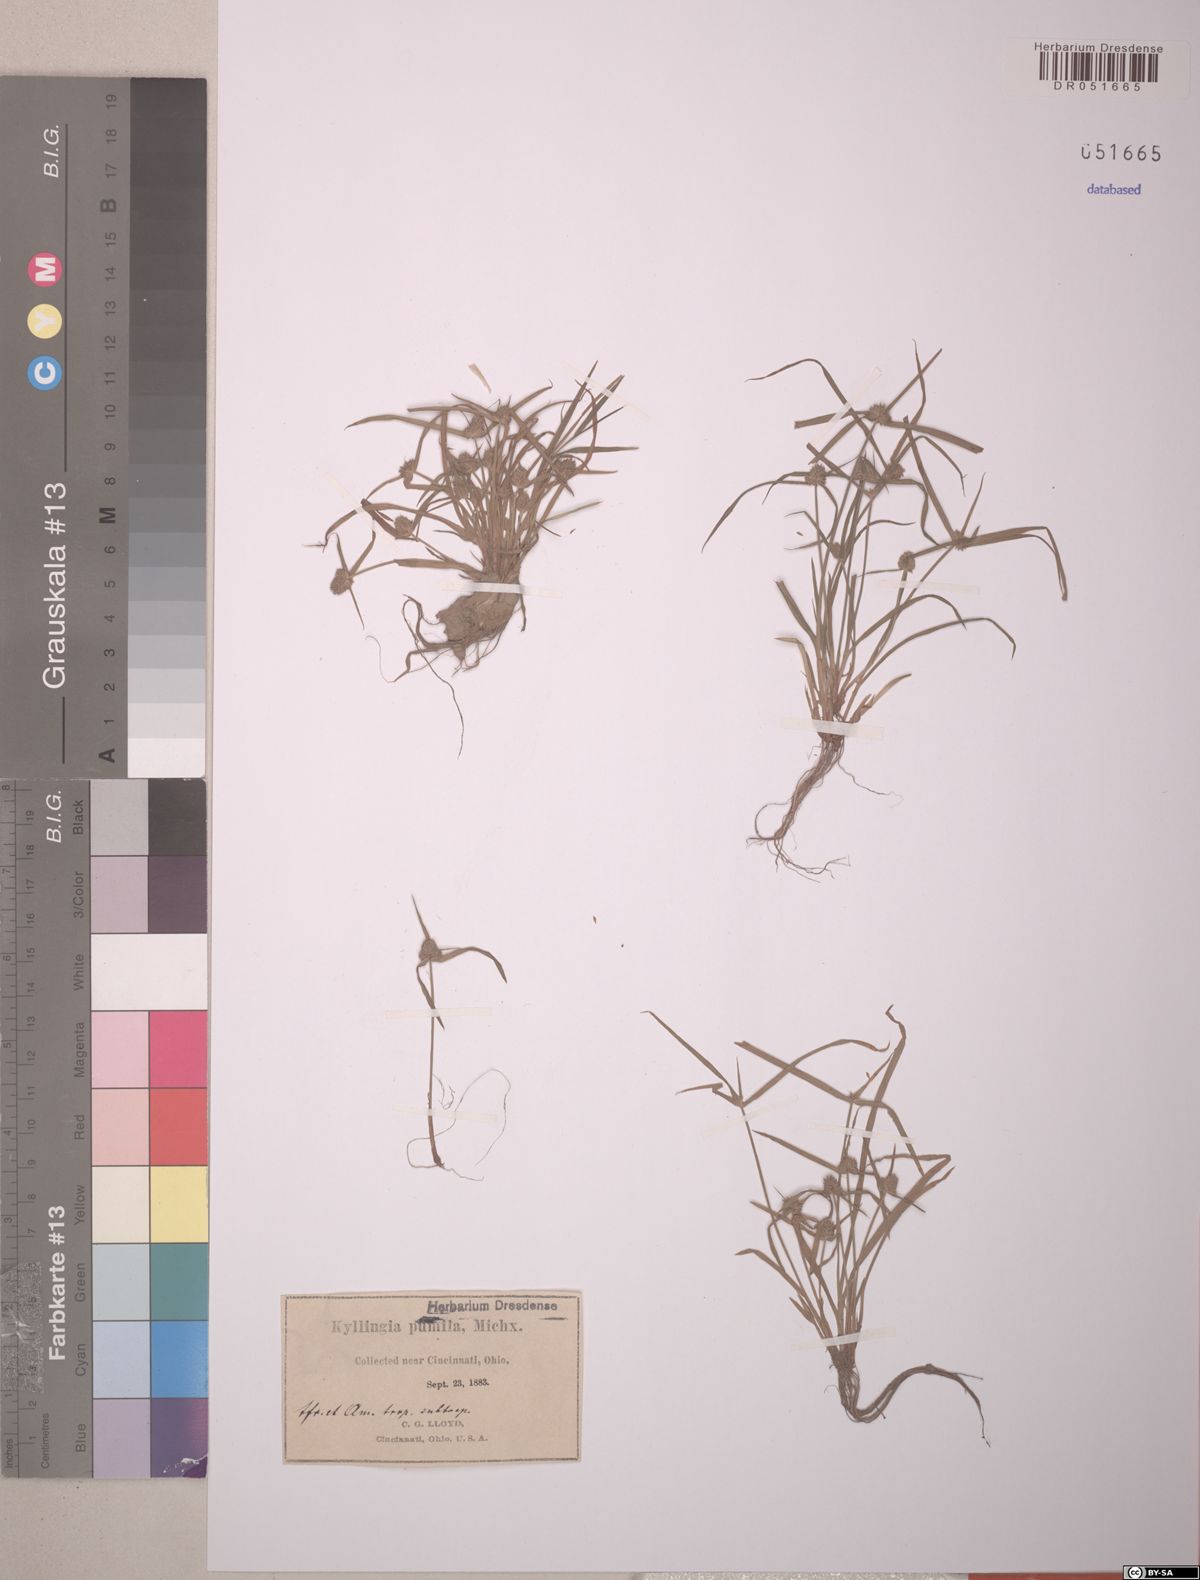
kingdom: Plantae
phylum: Tracheophyta
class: Liliopsida
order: Poales
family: Cyperaceae
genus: Cyperus
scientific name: Cyperus hortensis
